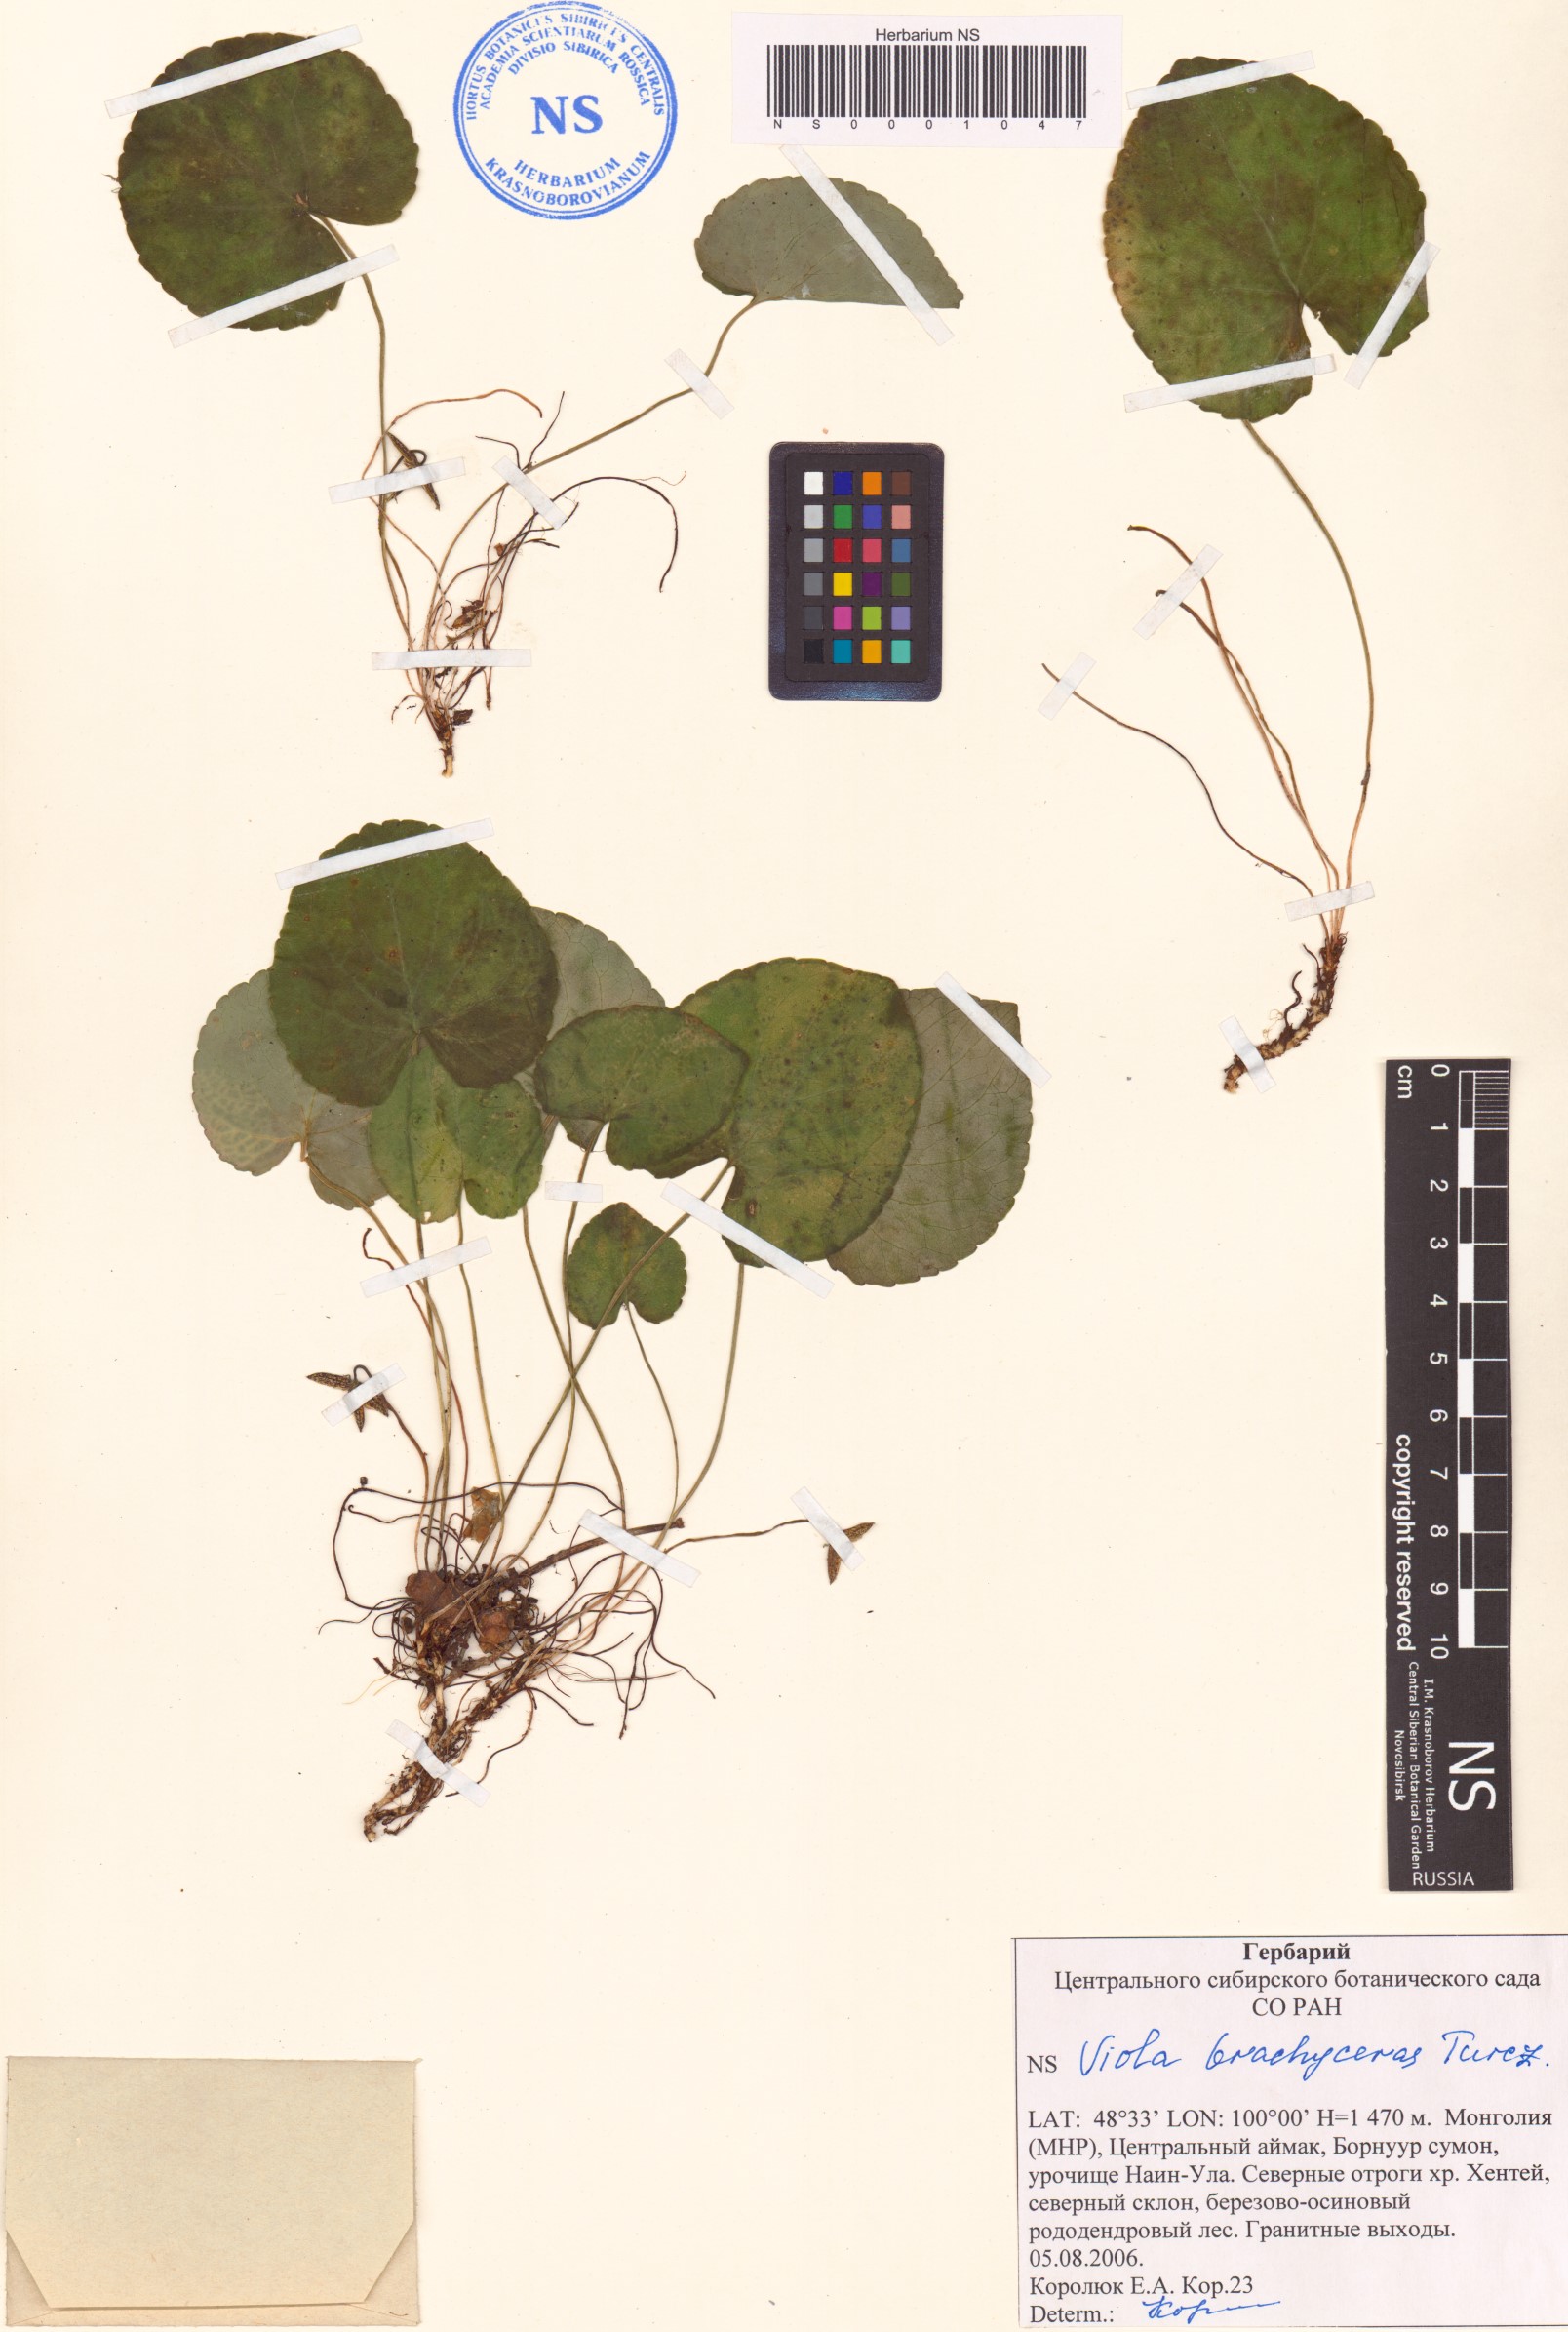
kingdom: Plantae
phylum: Tracheophyta
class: Magnoliopsida
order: Malpighiales
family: Violaceae
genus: Viola
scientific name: Viola epipsila
